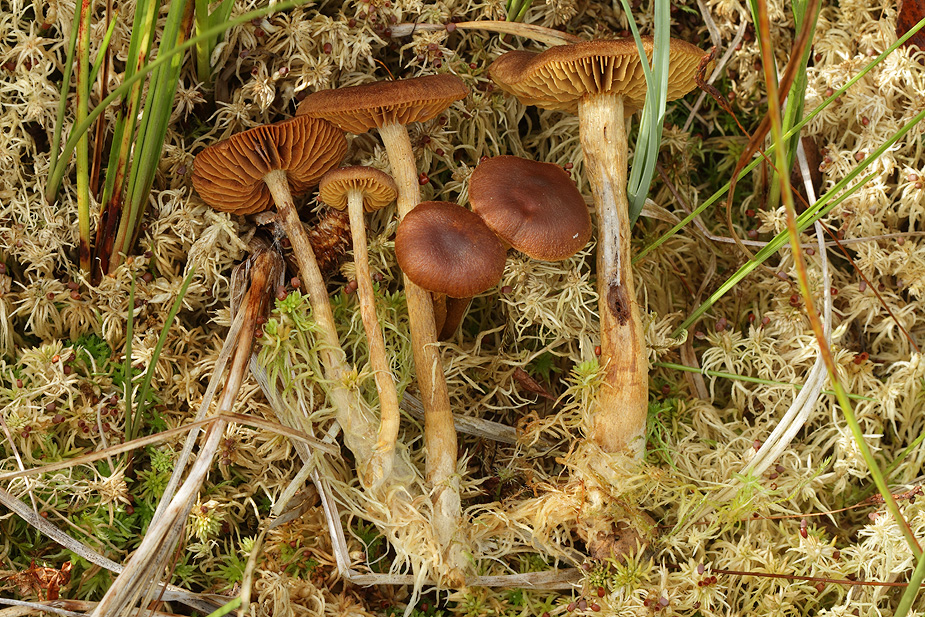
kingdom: Fungi
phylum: Basidiomycota
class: Agaricomycetes
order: Agaricales
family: Cortinariaceae
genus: Cortinarius
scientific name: Cortinarius subfusipes
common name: højmose-slørhat
